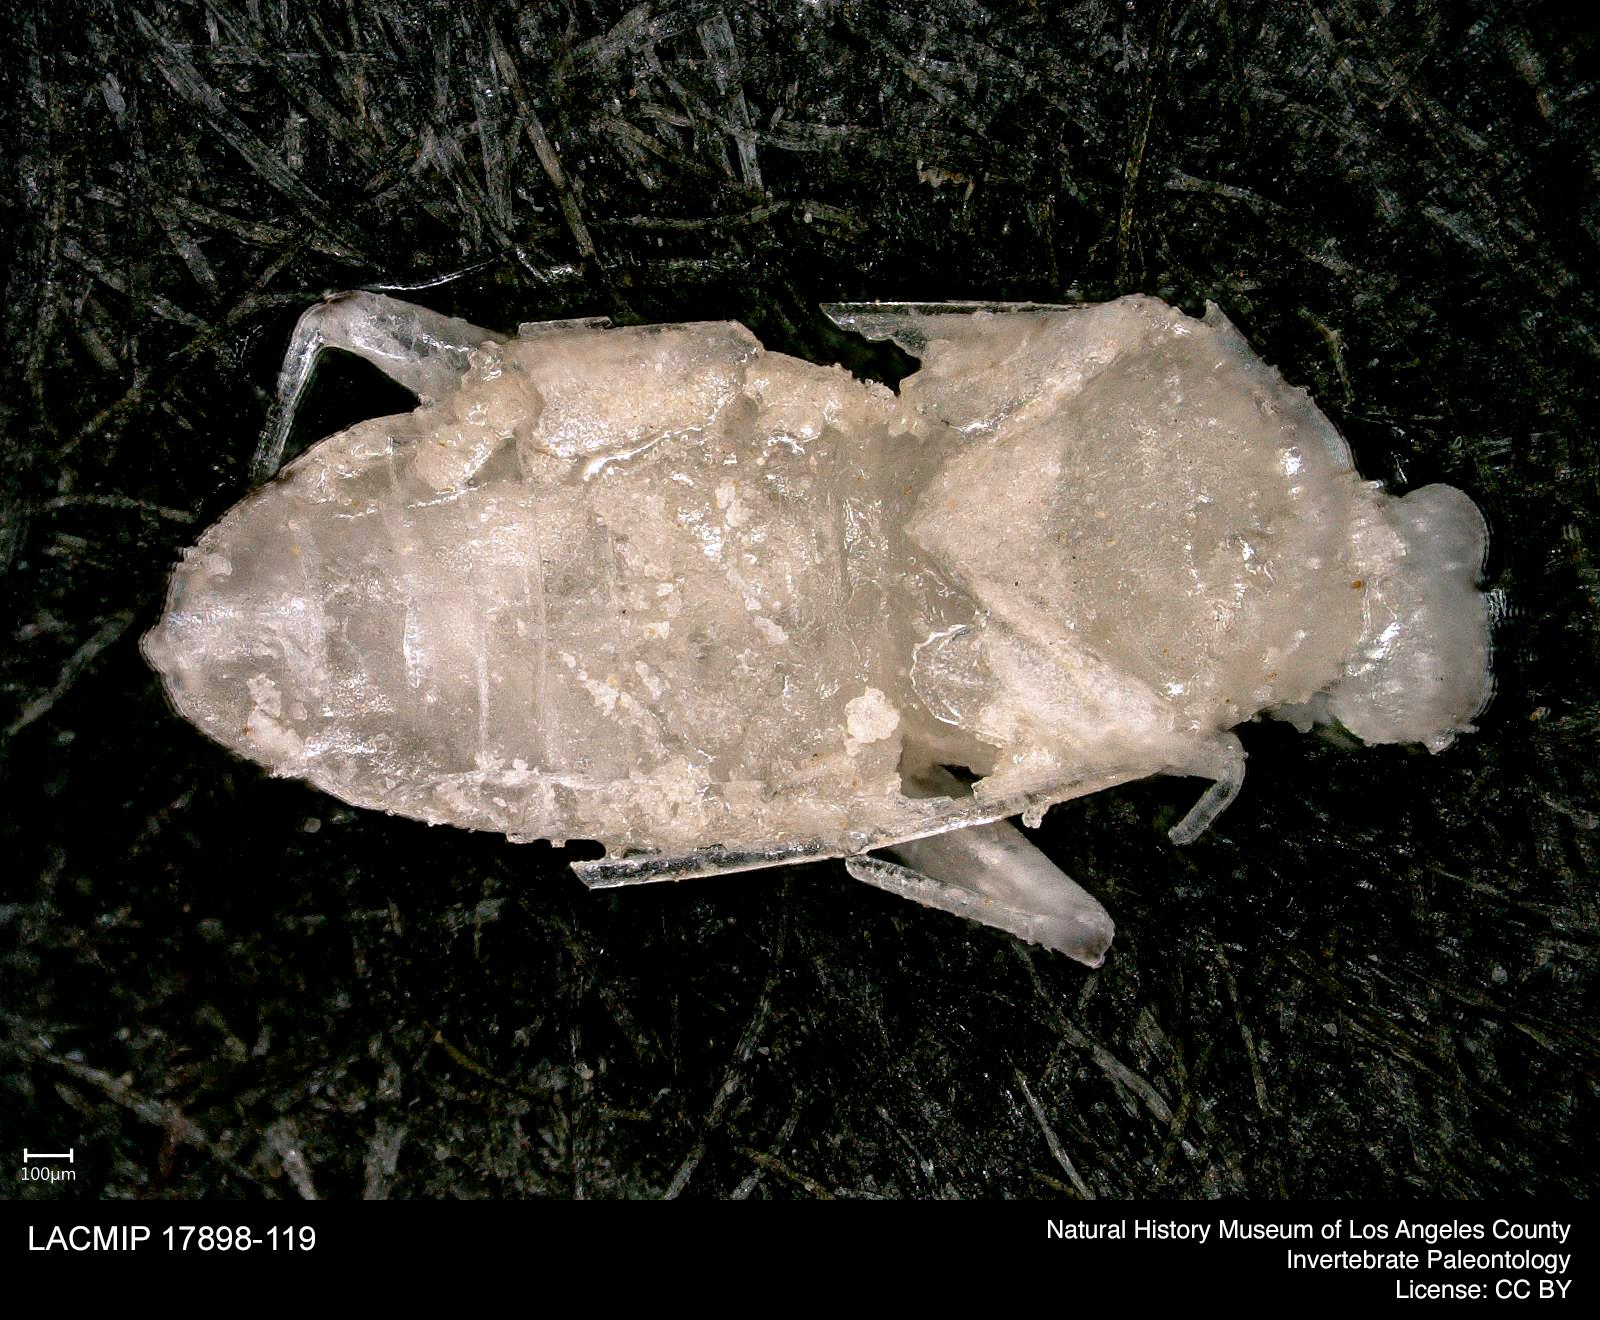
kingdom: Animalia
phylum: Arthropoda
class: Insecta
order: Hemiptera
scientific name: Hemiptera
